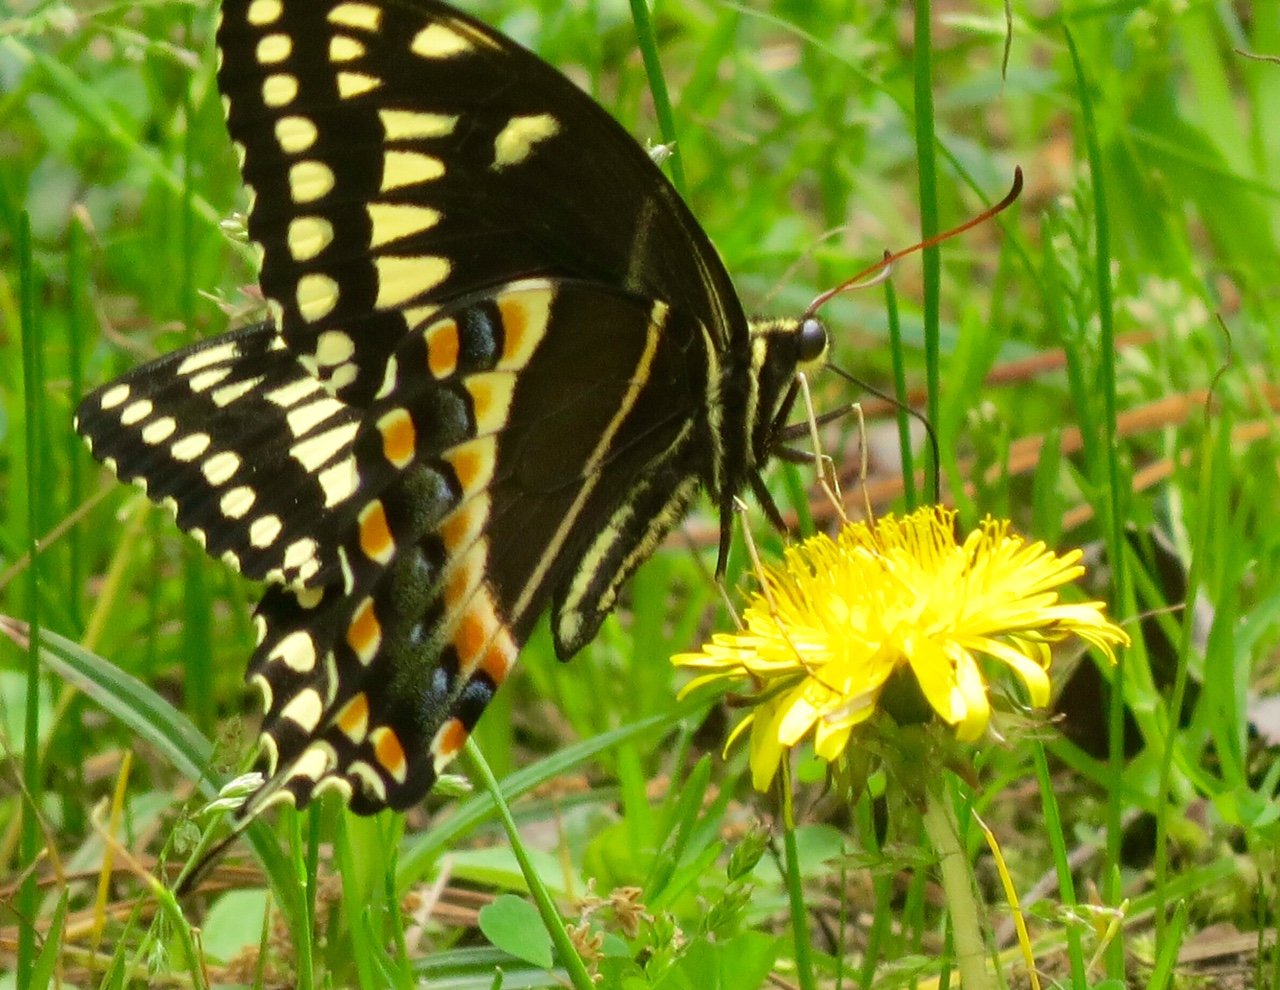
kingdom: Animalia
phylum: Arthropoda
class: Insecta
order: Lepidoptera
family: Papilionidae
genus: Pterourus
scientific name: Pterourus palamedes
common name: Palamedes Swallowtail
